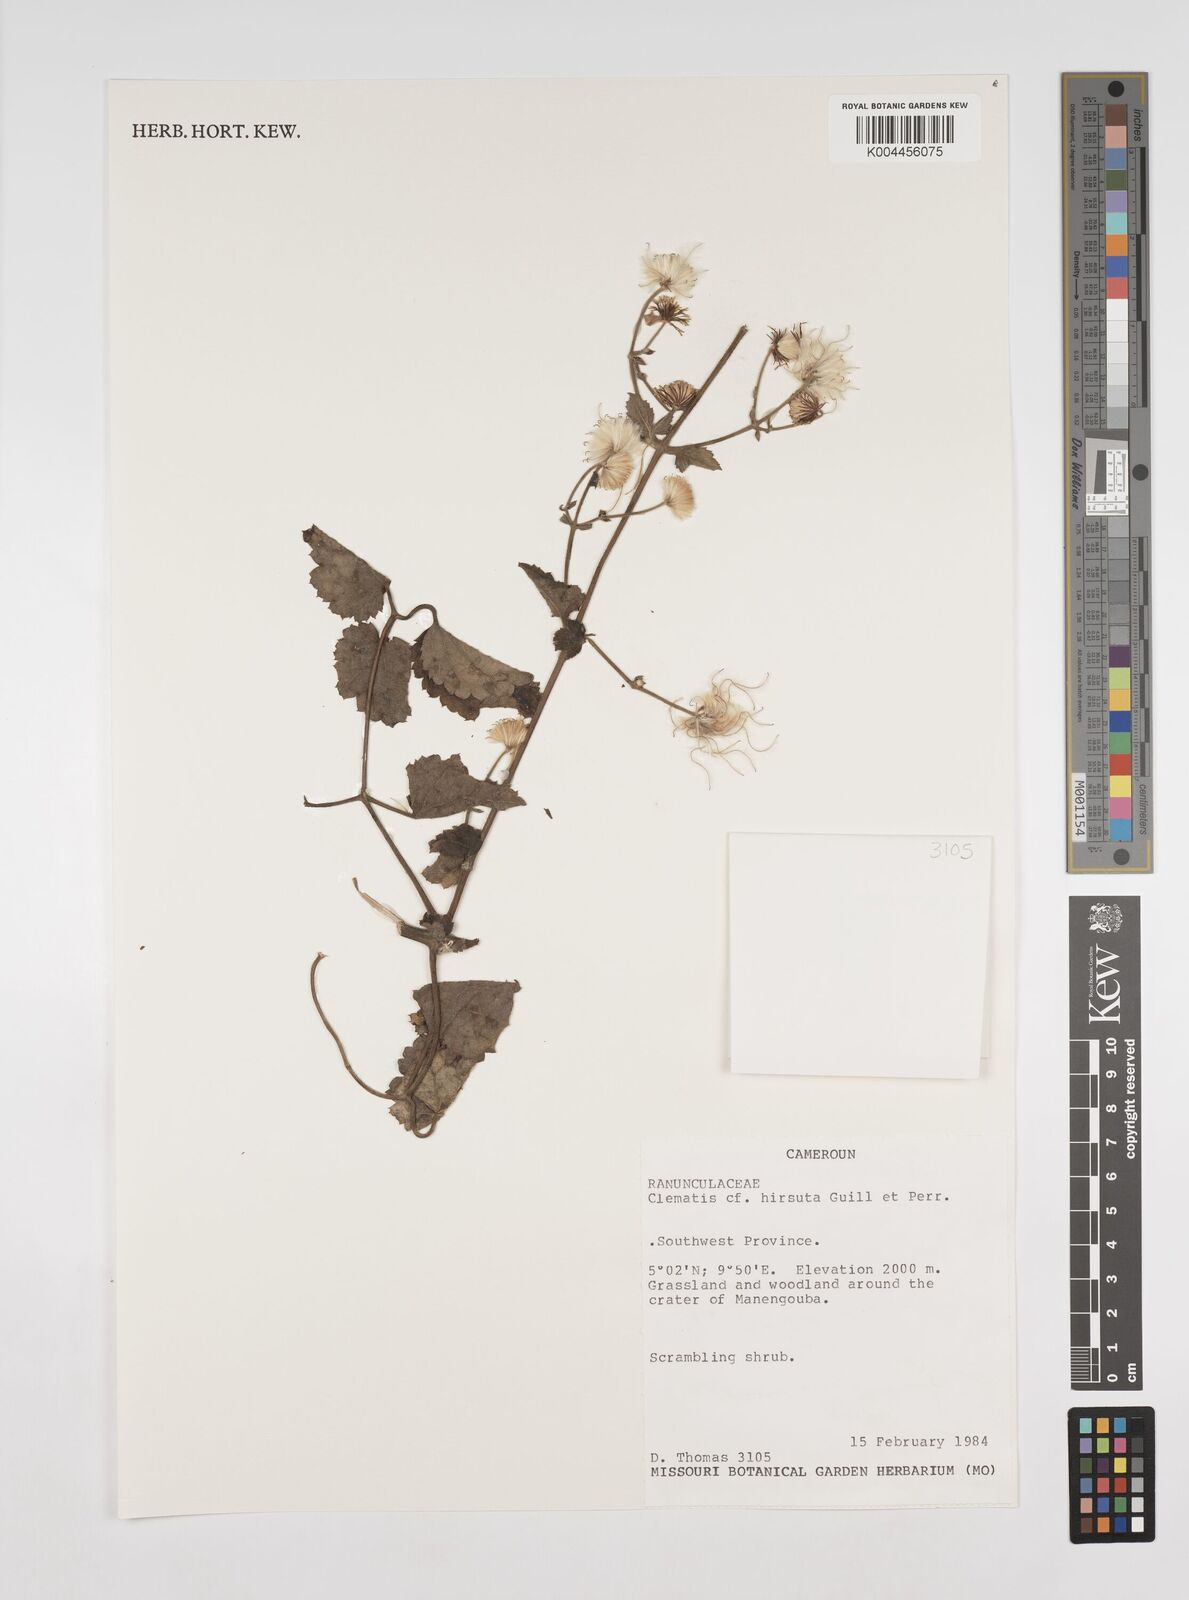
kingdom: Plantae
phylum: Tracheophyta
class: Magnoliopsida
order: Ranunculales
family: Ranunculaceae
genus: Clematis
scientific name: Clematis hirsuta
